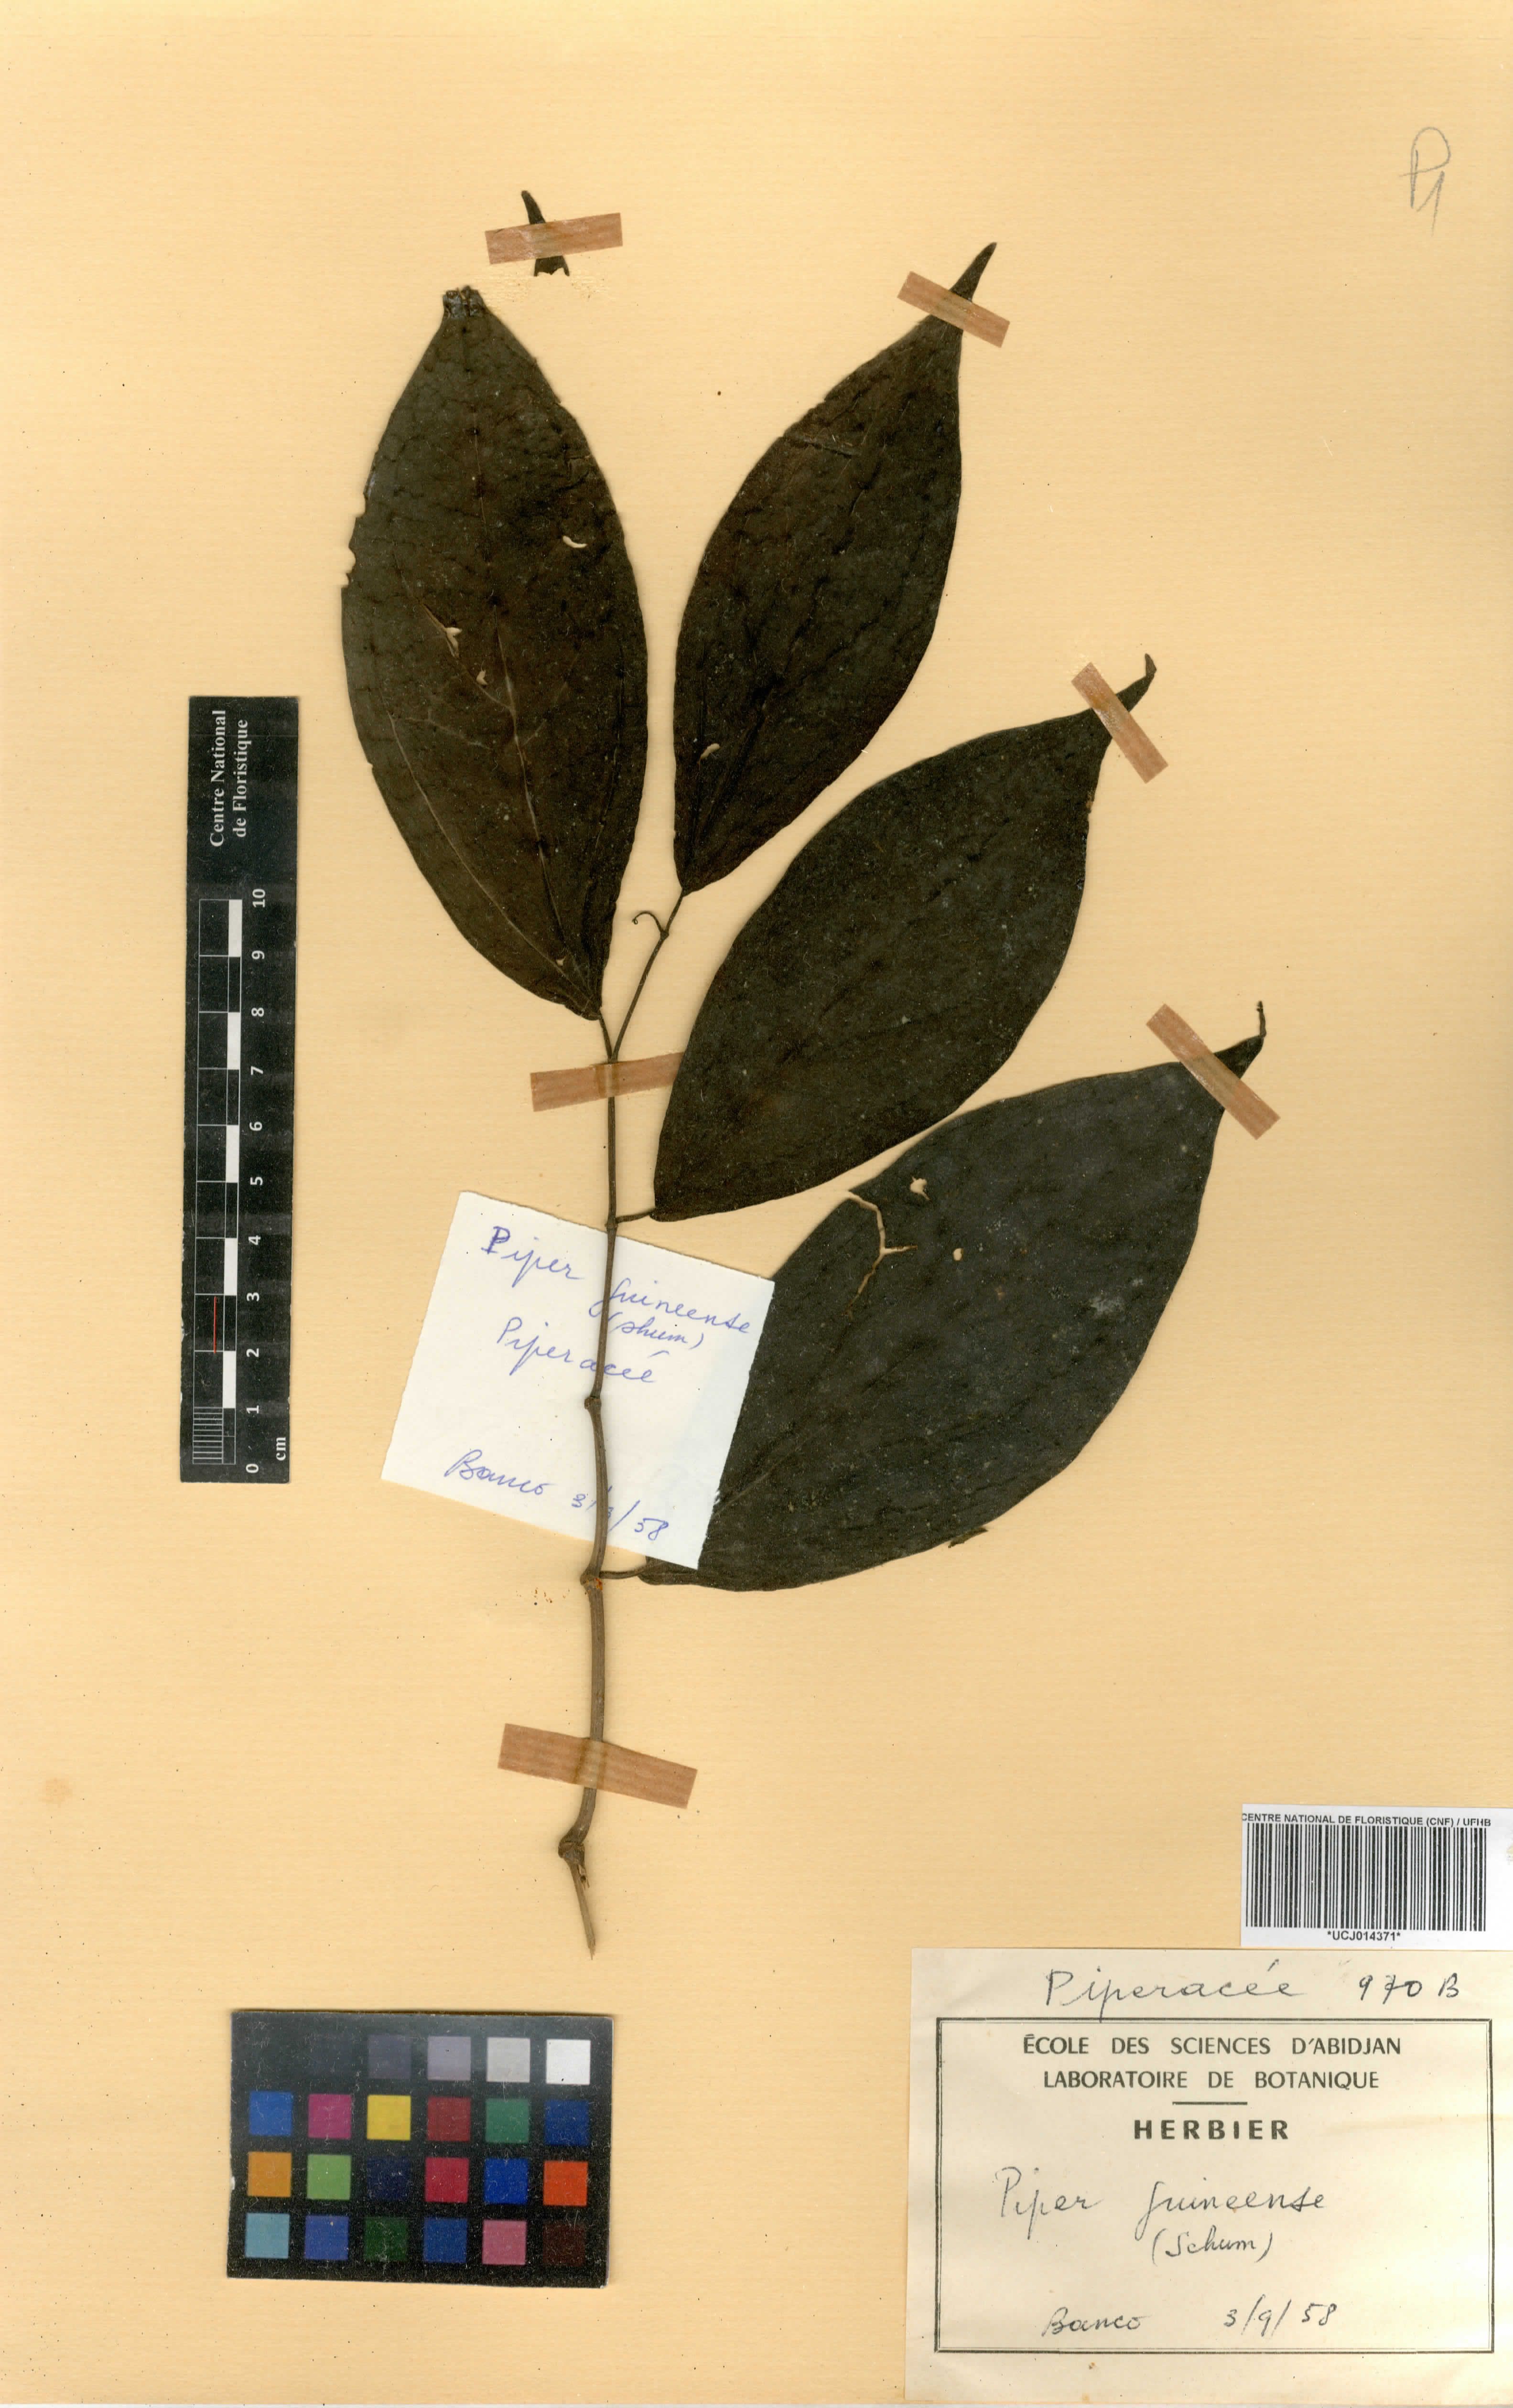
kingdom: Plantae
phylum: Tracheophyta
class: Magnoliopsida
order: Piperales
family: Piperaceae
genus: Piper
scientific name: Piper guineense
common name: Benin pepper
